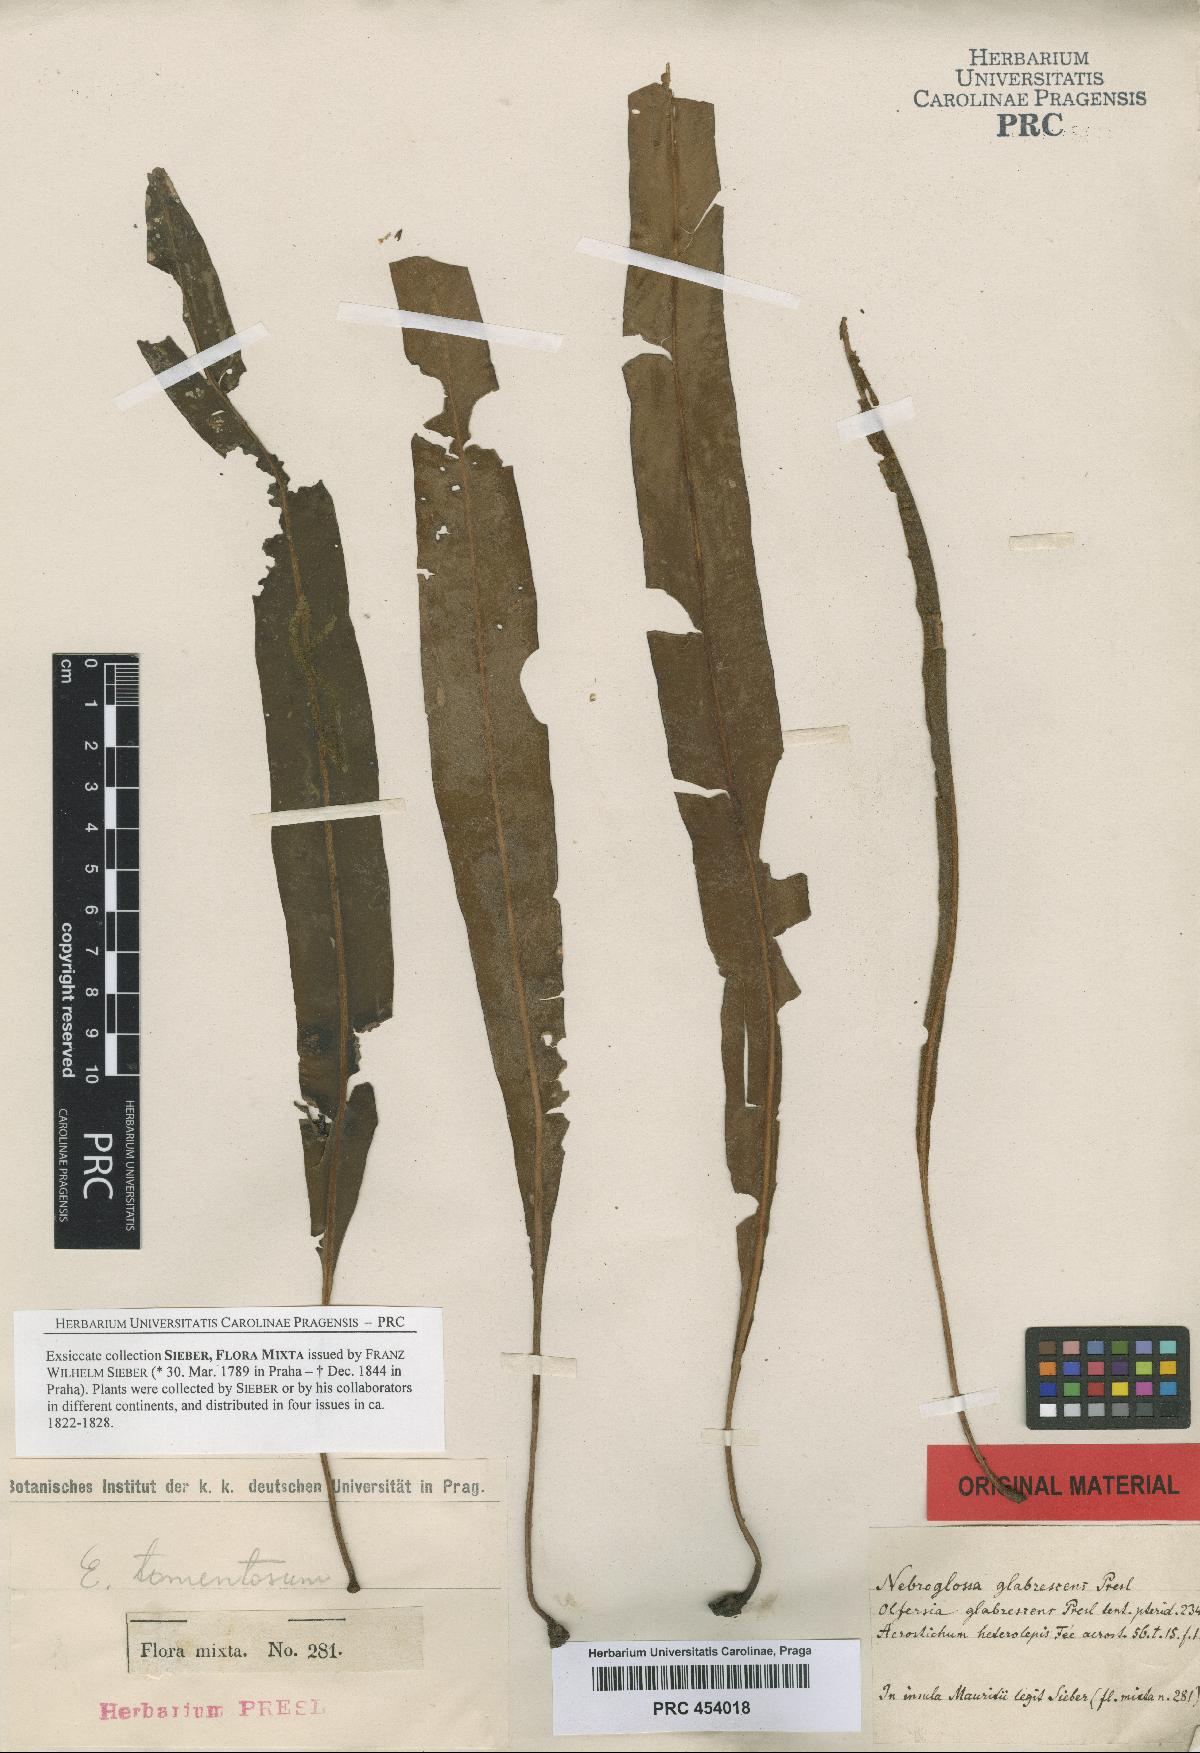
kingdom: Plantae
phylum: Tracheophyta
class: Polypodiopsida
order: Polypodiales
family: Dryopteridaceae
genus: Elaphoglossum
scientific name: Elaphoglossum heterolepis
